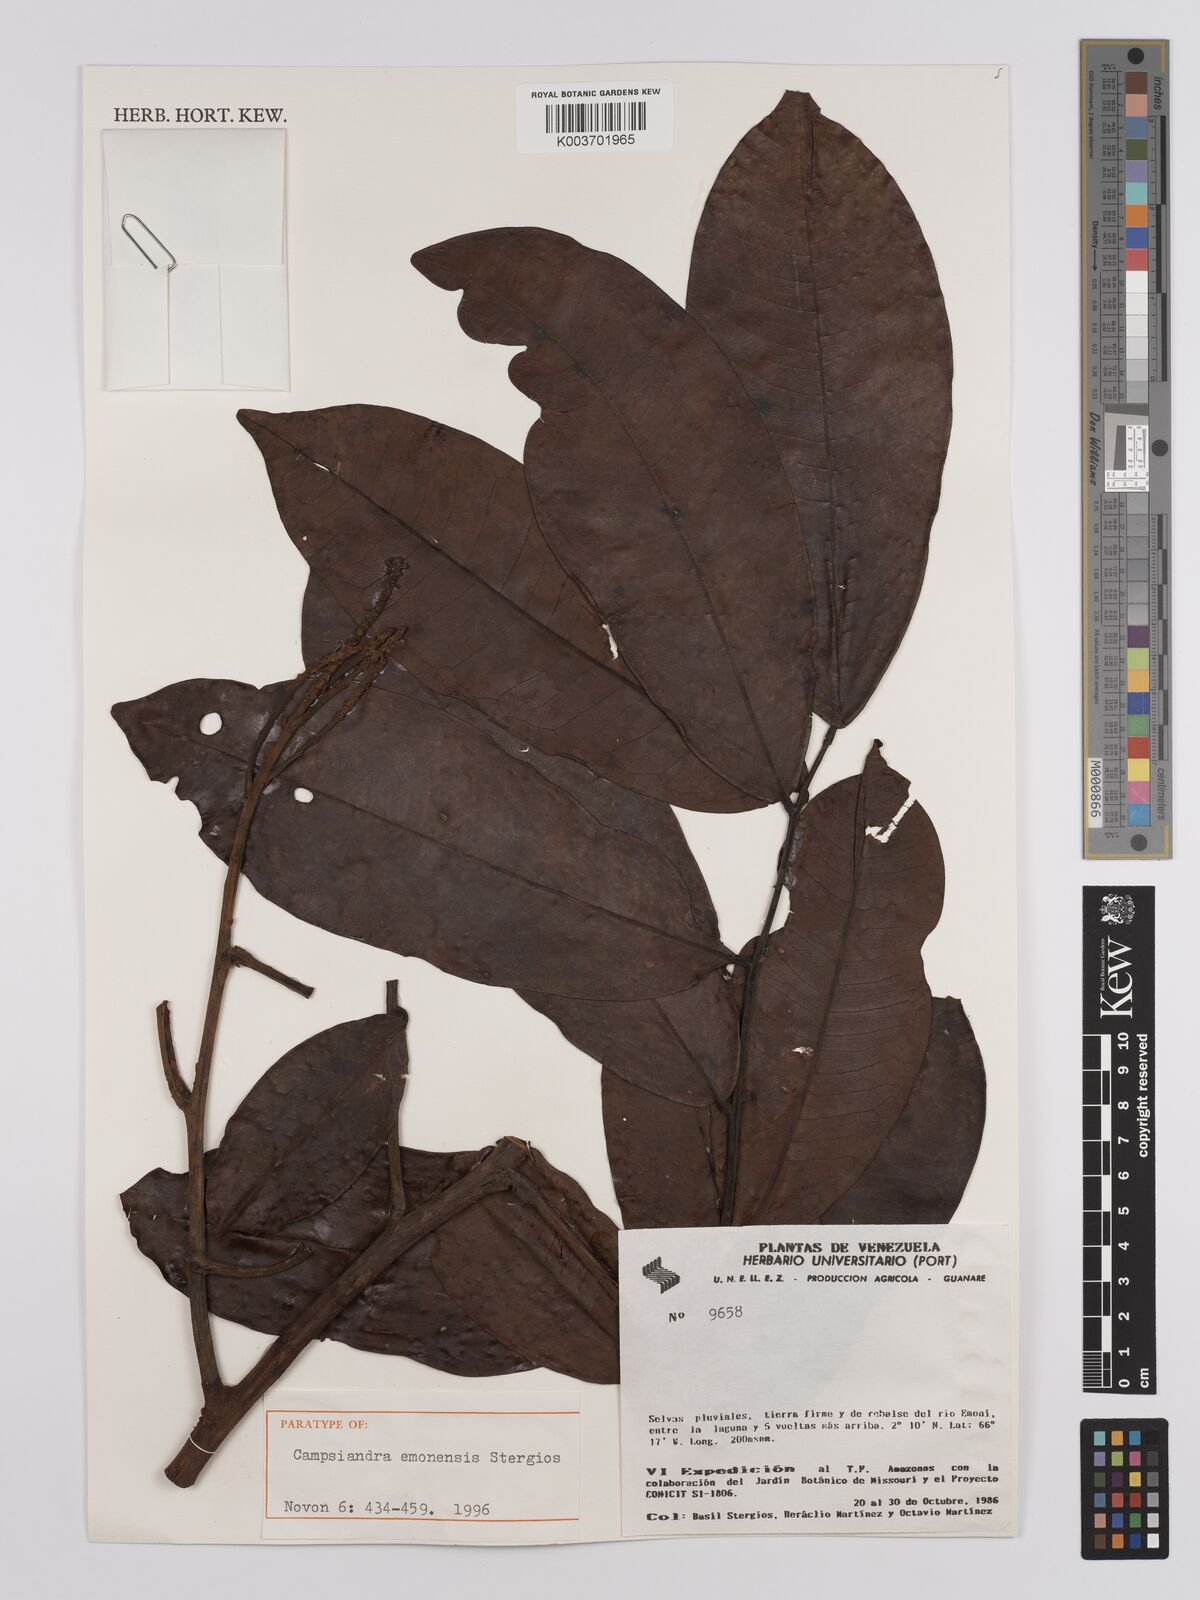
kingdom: Plantae
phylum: Tracheophyta
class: Magnoliopsida
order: Fabales
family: Fabaceae
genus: Campsiandra
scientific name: Campsiandra emonensis
